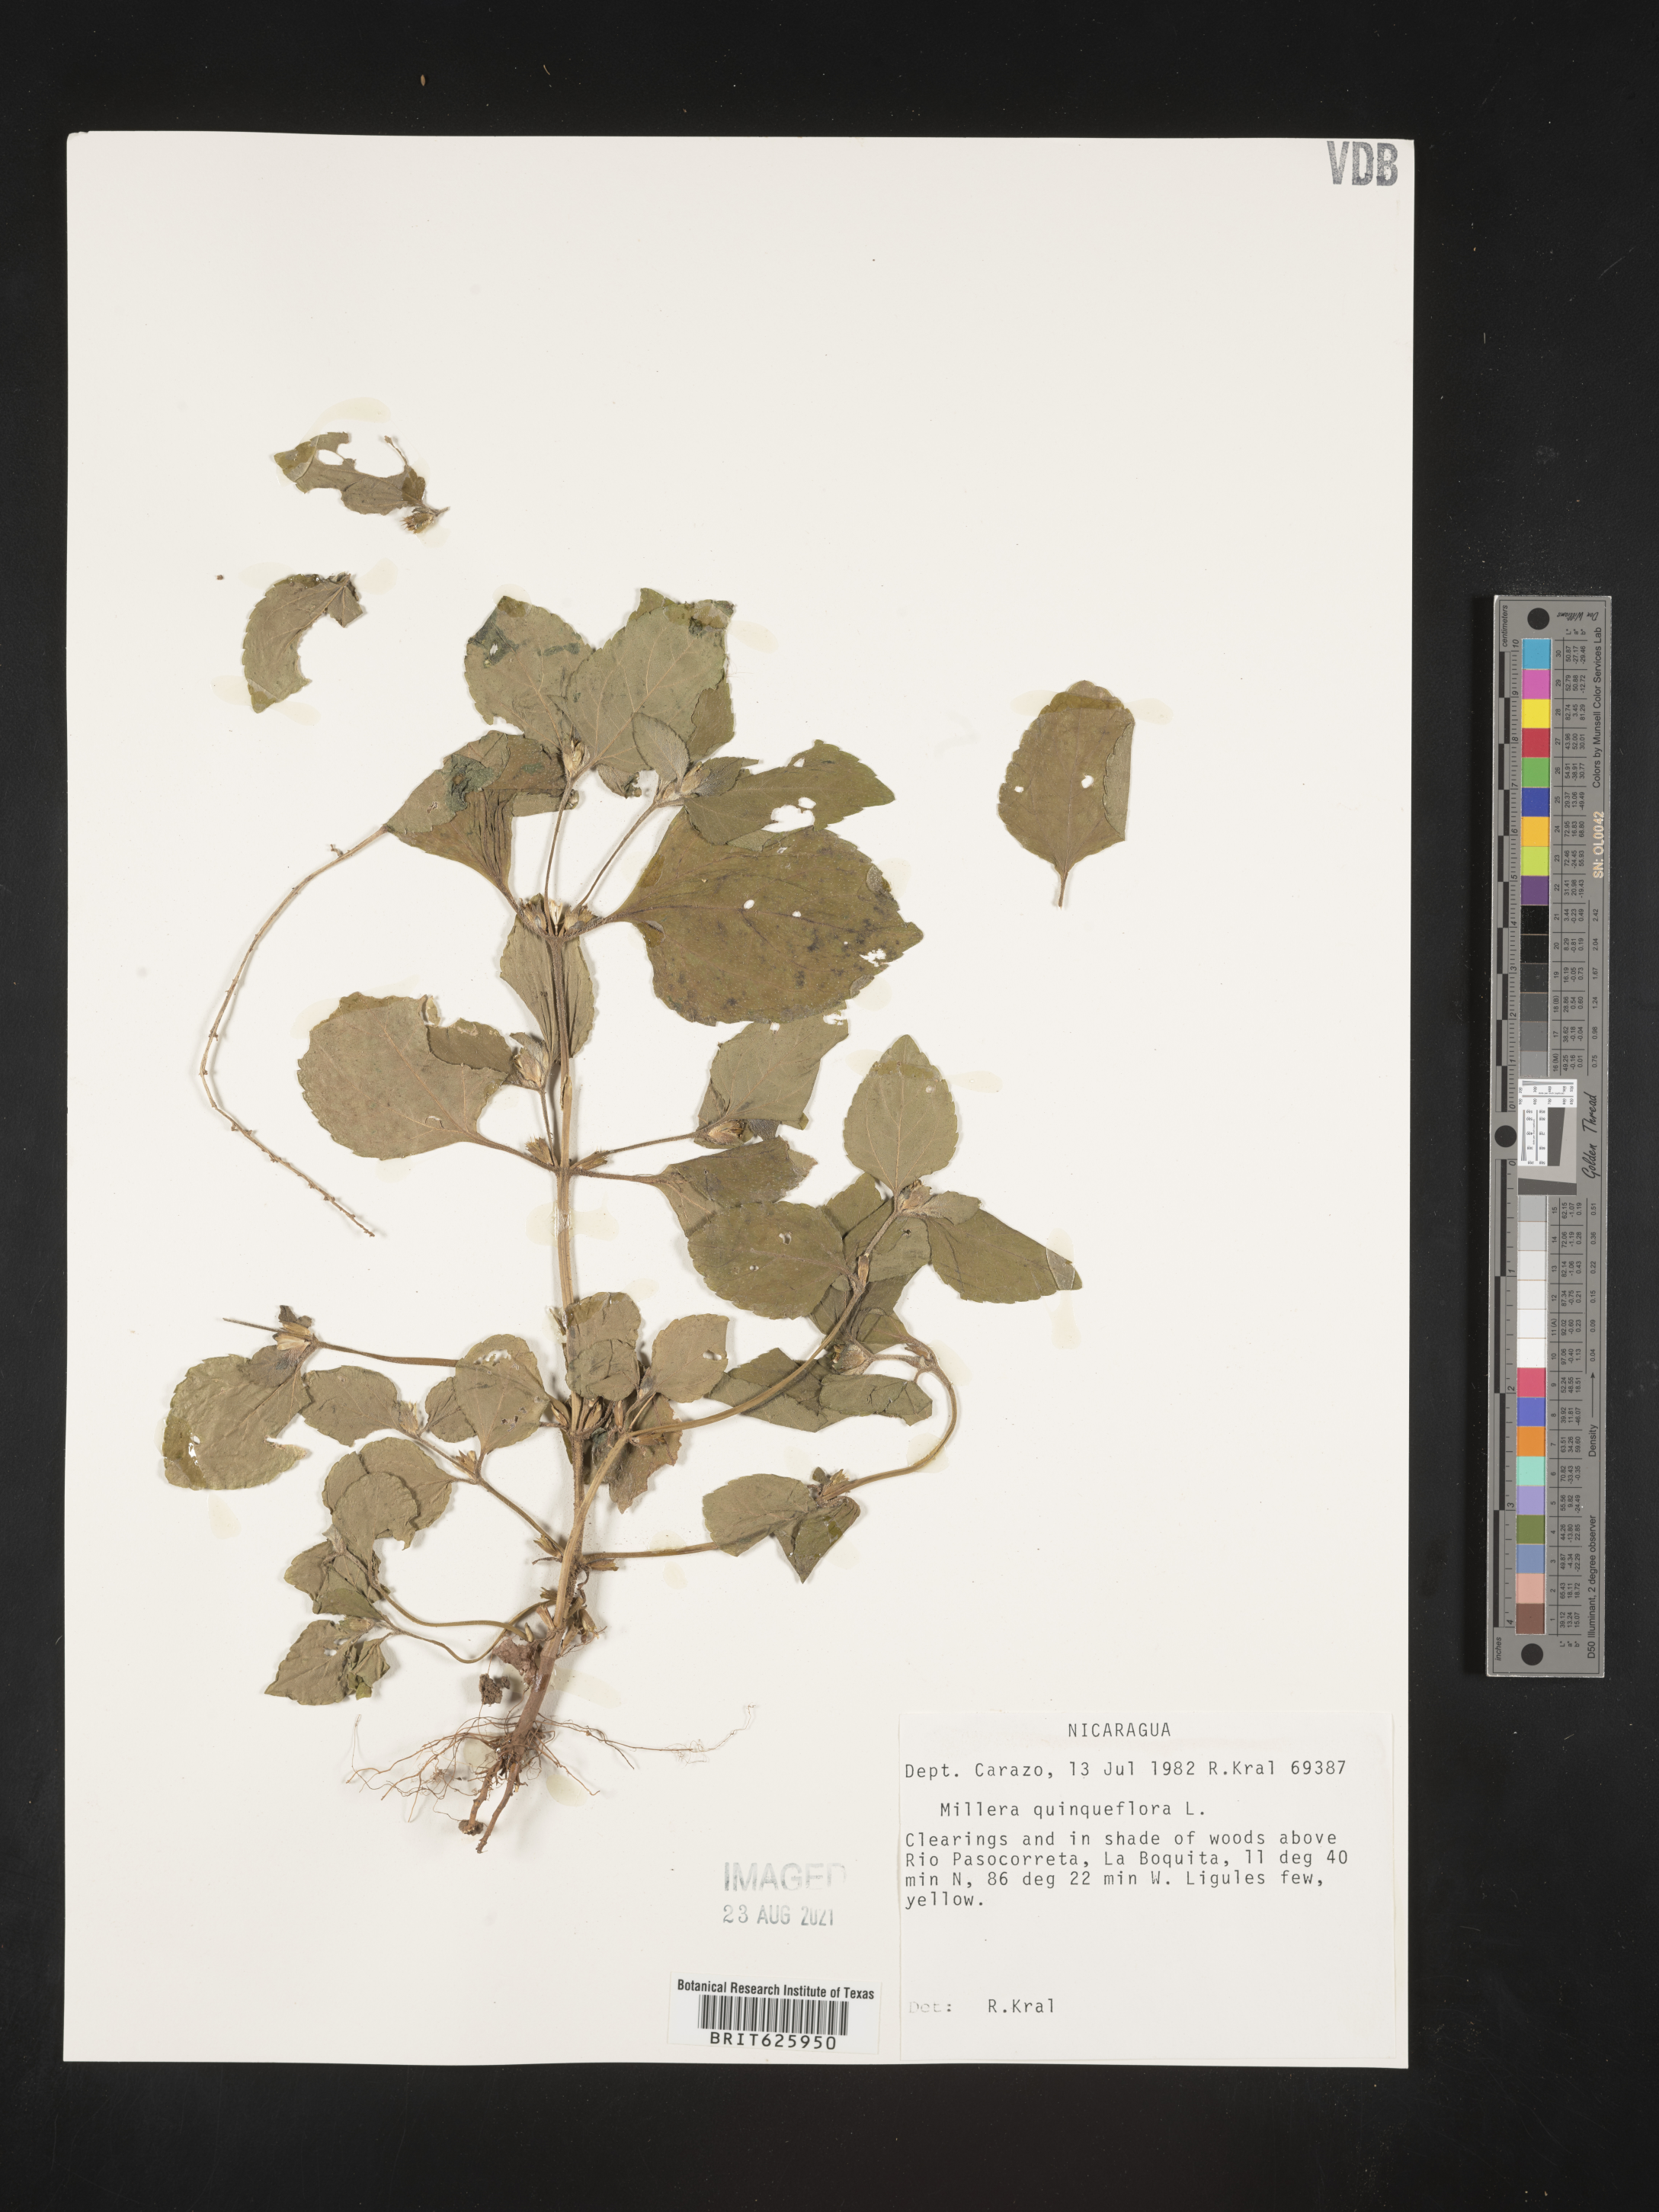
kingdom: Plantae
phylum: Tracheophyta
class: Magnoliopsida
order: Asterales
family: Asteraceae
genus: Milleria
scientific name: Milleria quinqueflora
